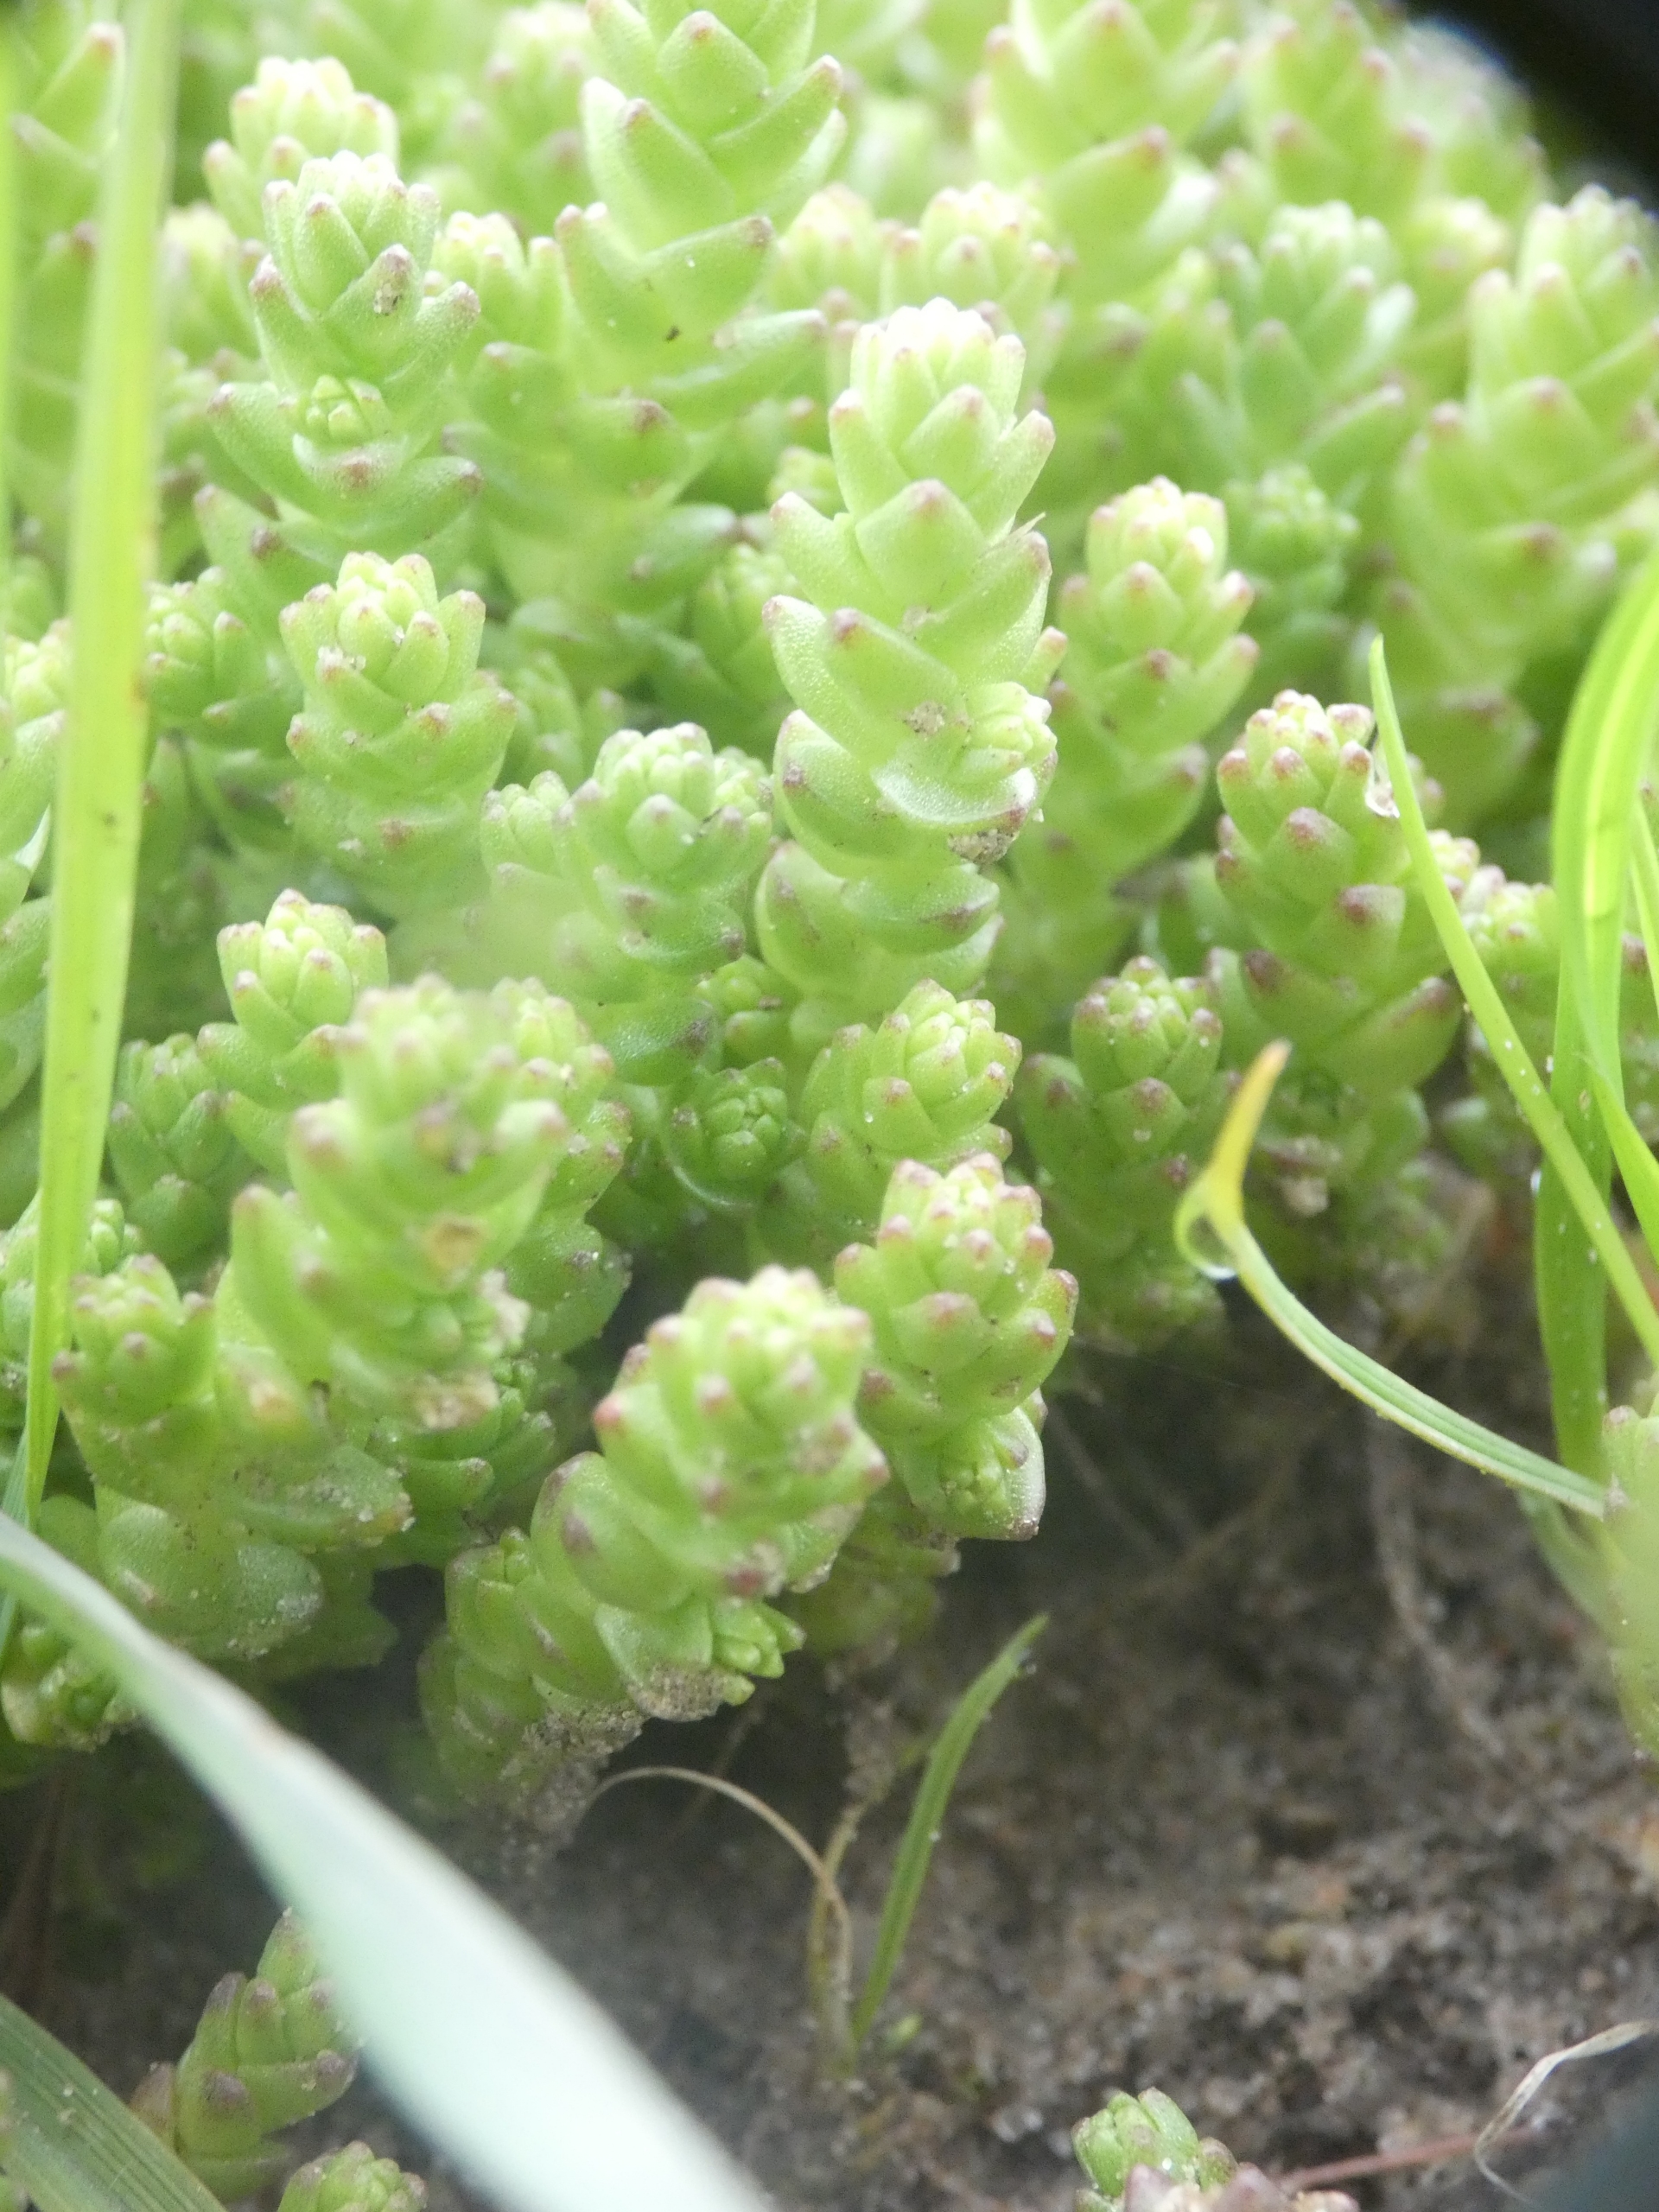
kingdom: Plantae
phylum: Tracheophyta
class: Magnoliopsida
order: Saxifragales
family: Crassulaceae
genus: Sedum
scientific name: Sedum acre
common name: Bidende stenurt
